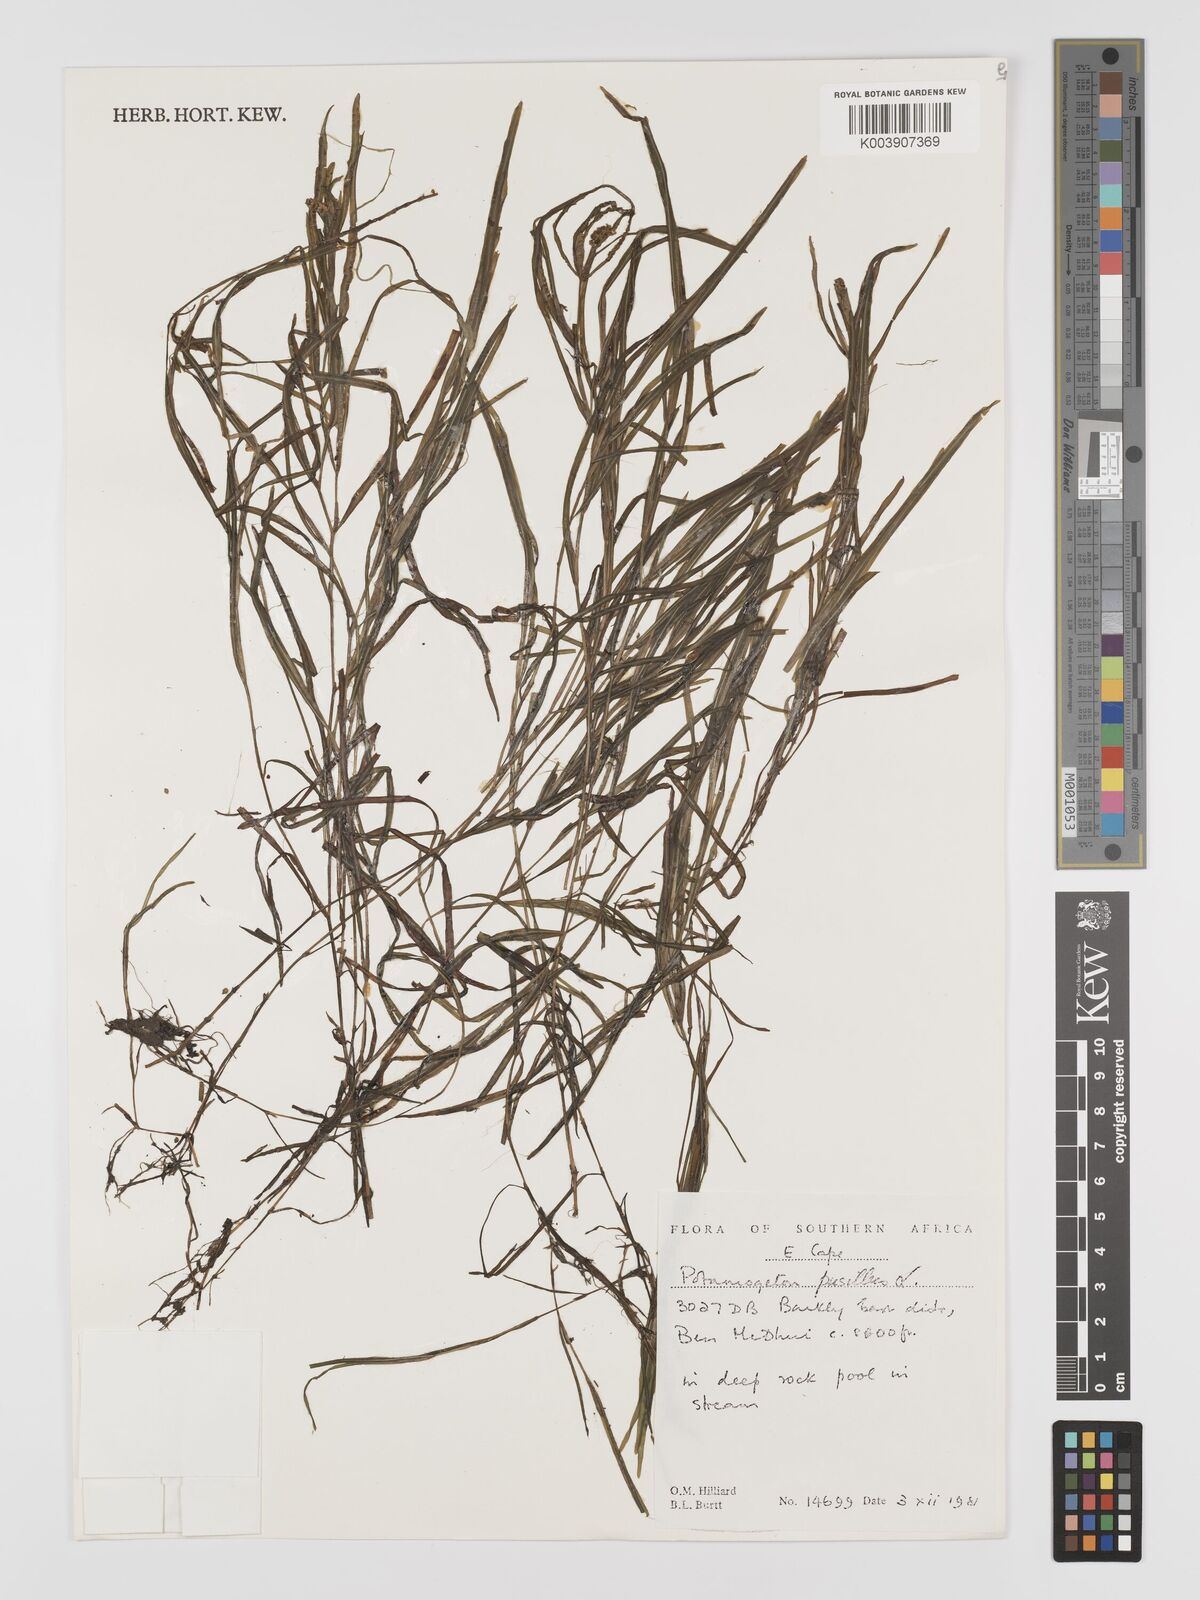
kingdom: Plantae
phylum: Tracheophyta
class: Liliopsida
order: Alismatales
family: Potamogetonaceae
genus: Potamogeton
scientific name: Potamogeton pusillus
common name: Lesser pondweed
